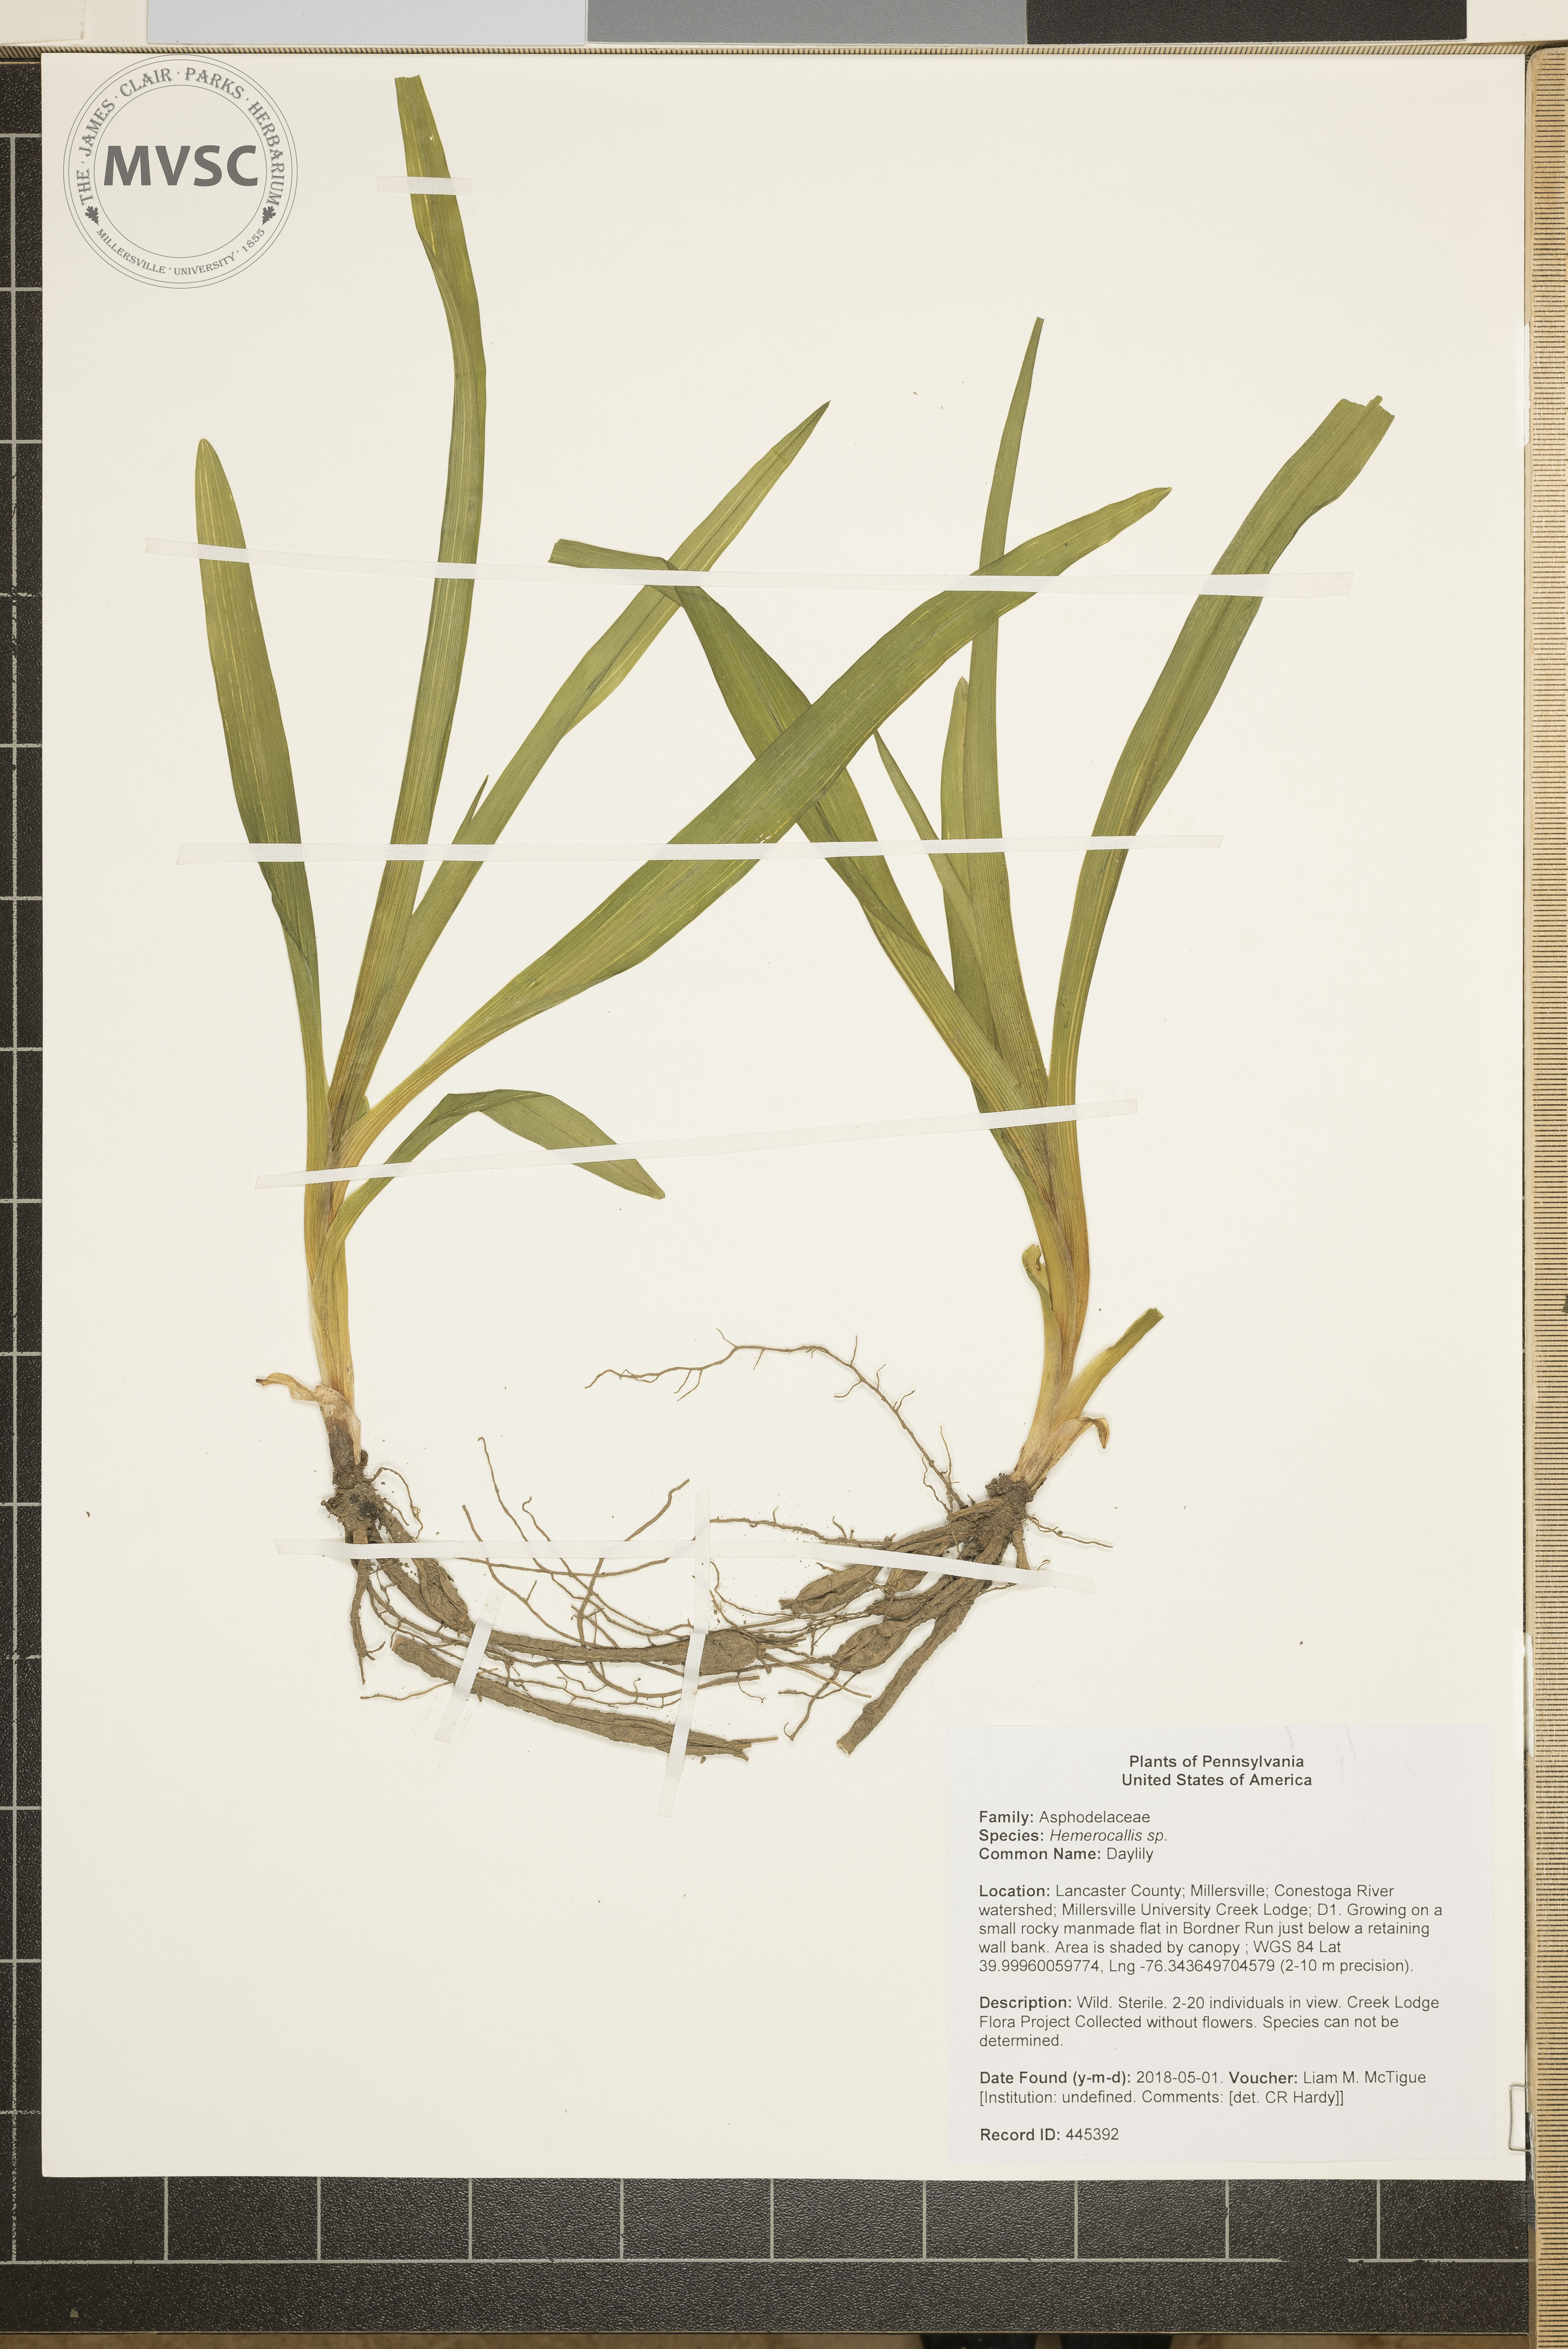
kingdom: Plantae
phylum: Tracheophyta
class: Liliopsida
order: Asparagales
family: Asphodelaceae
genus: Hemerocallis
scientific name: Hemerocallis
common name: Daylily
